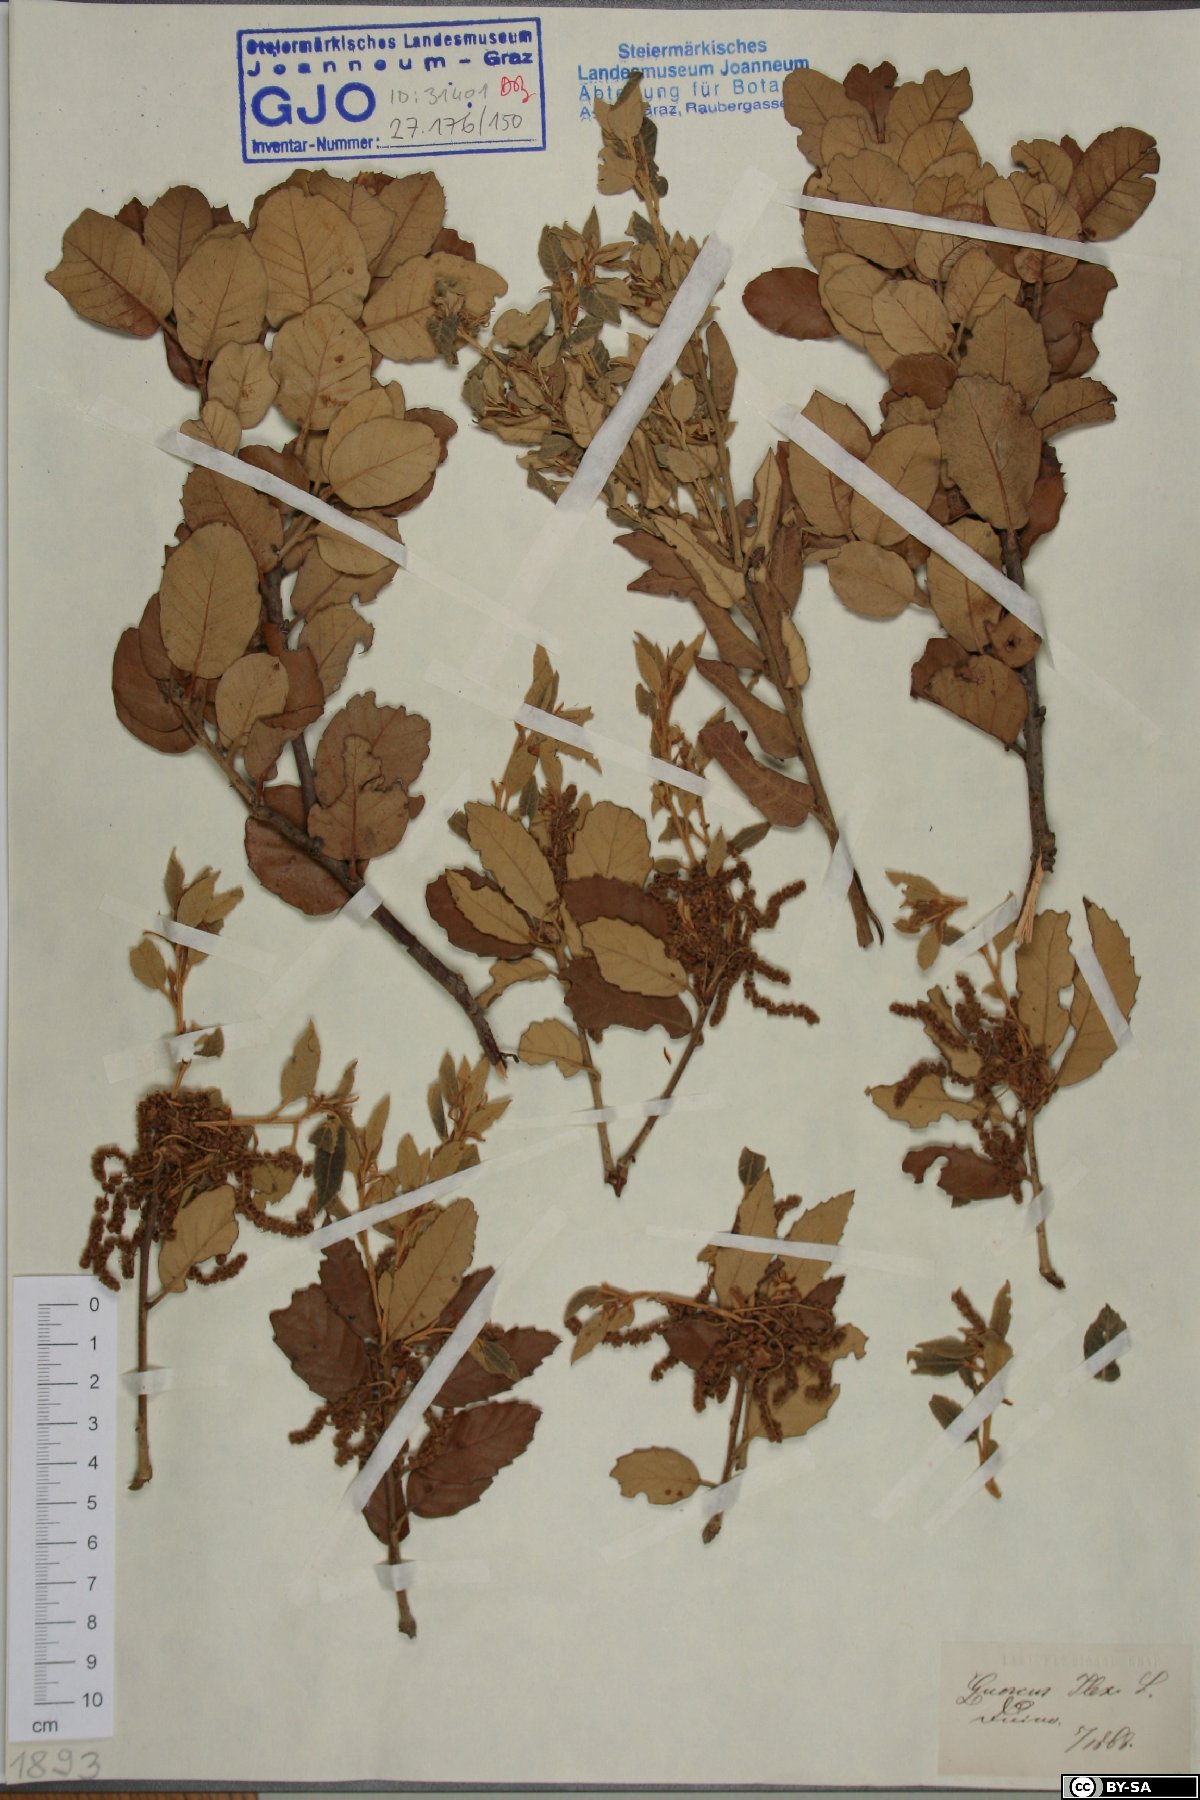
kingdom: Plantae
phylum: Tracheophyta
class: Magnoliopsida
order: Fagales
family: Fagaceae
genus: Quercus
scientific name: Quercus ilex
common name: Evergreen oak
